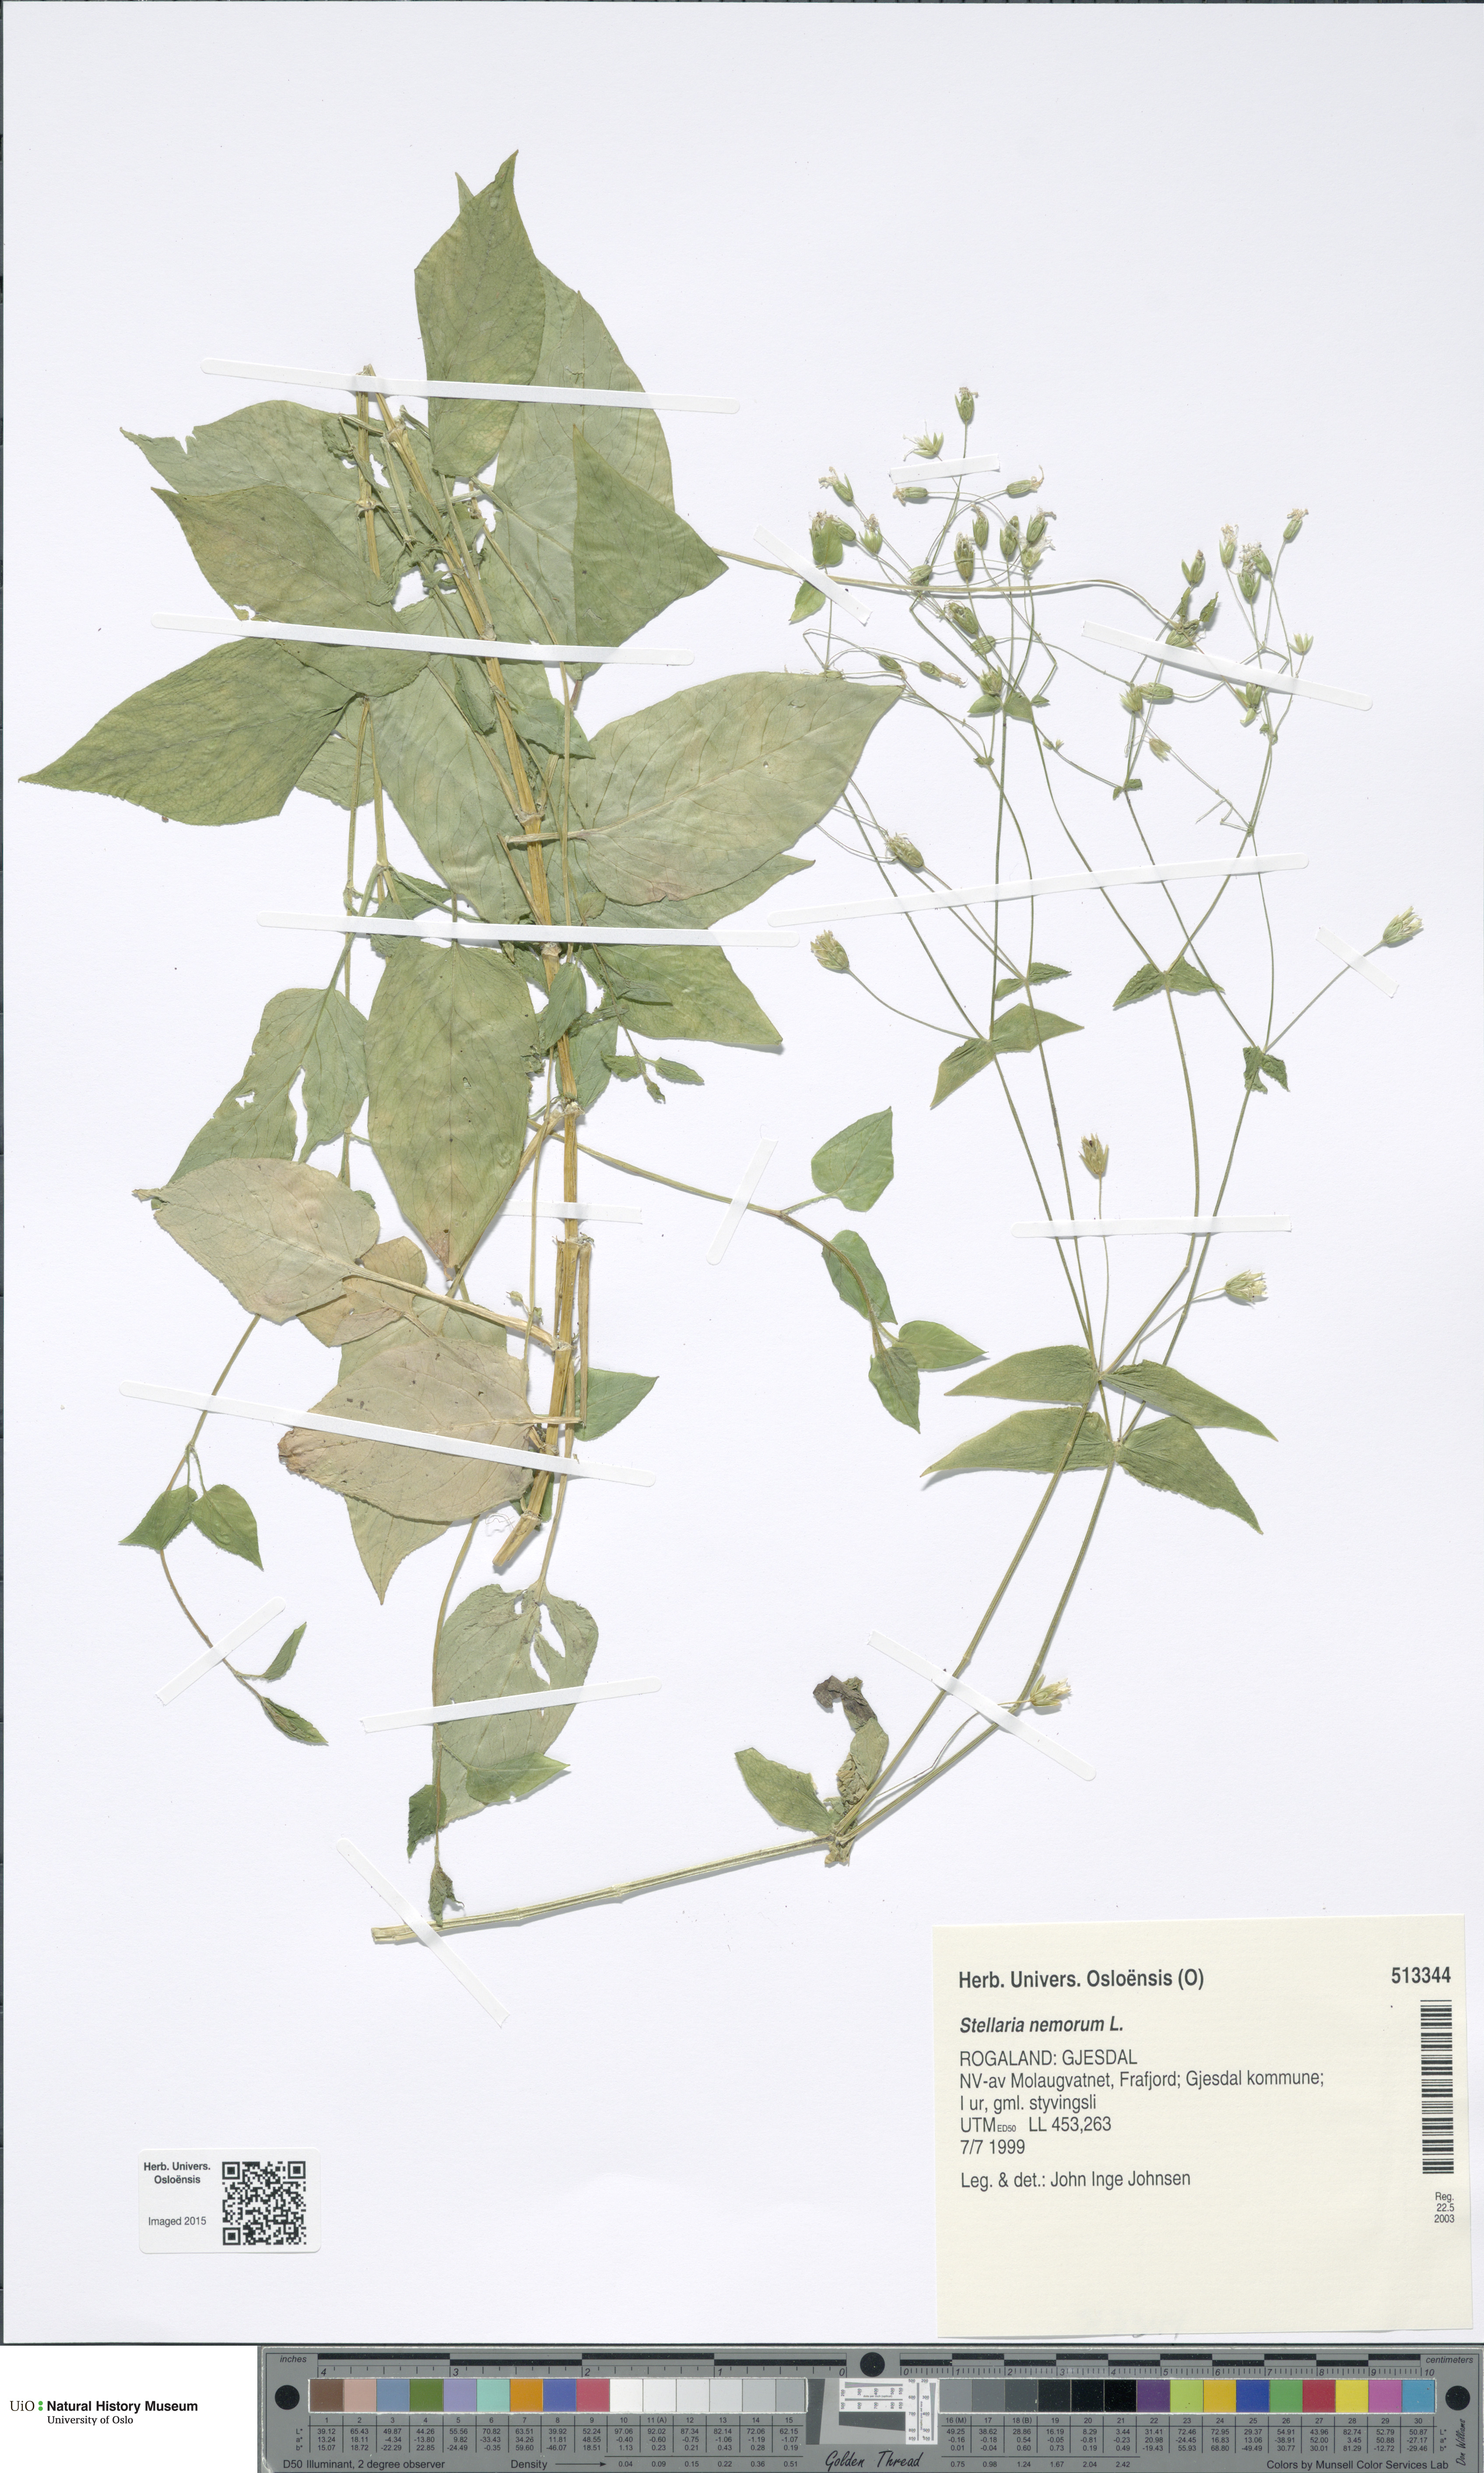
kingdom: Plantae
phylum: Tracheophyta
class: Magnoliopsida
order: Caryophyllales
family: Caryophyllaceae
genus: Stellaria
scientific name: Stellaria nemorum
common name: Wood stitchwort
